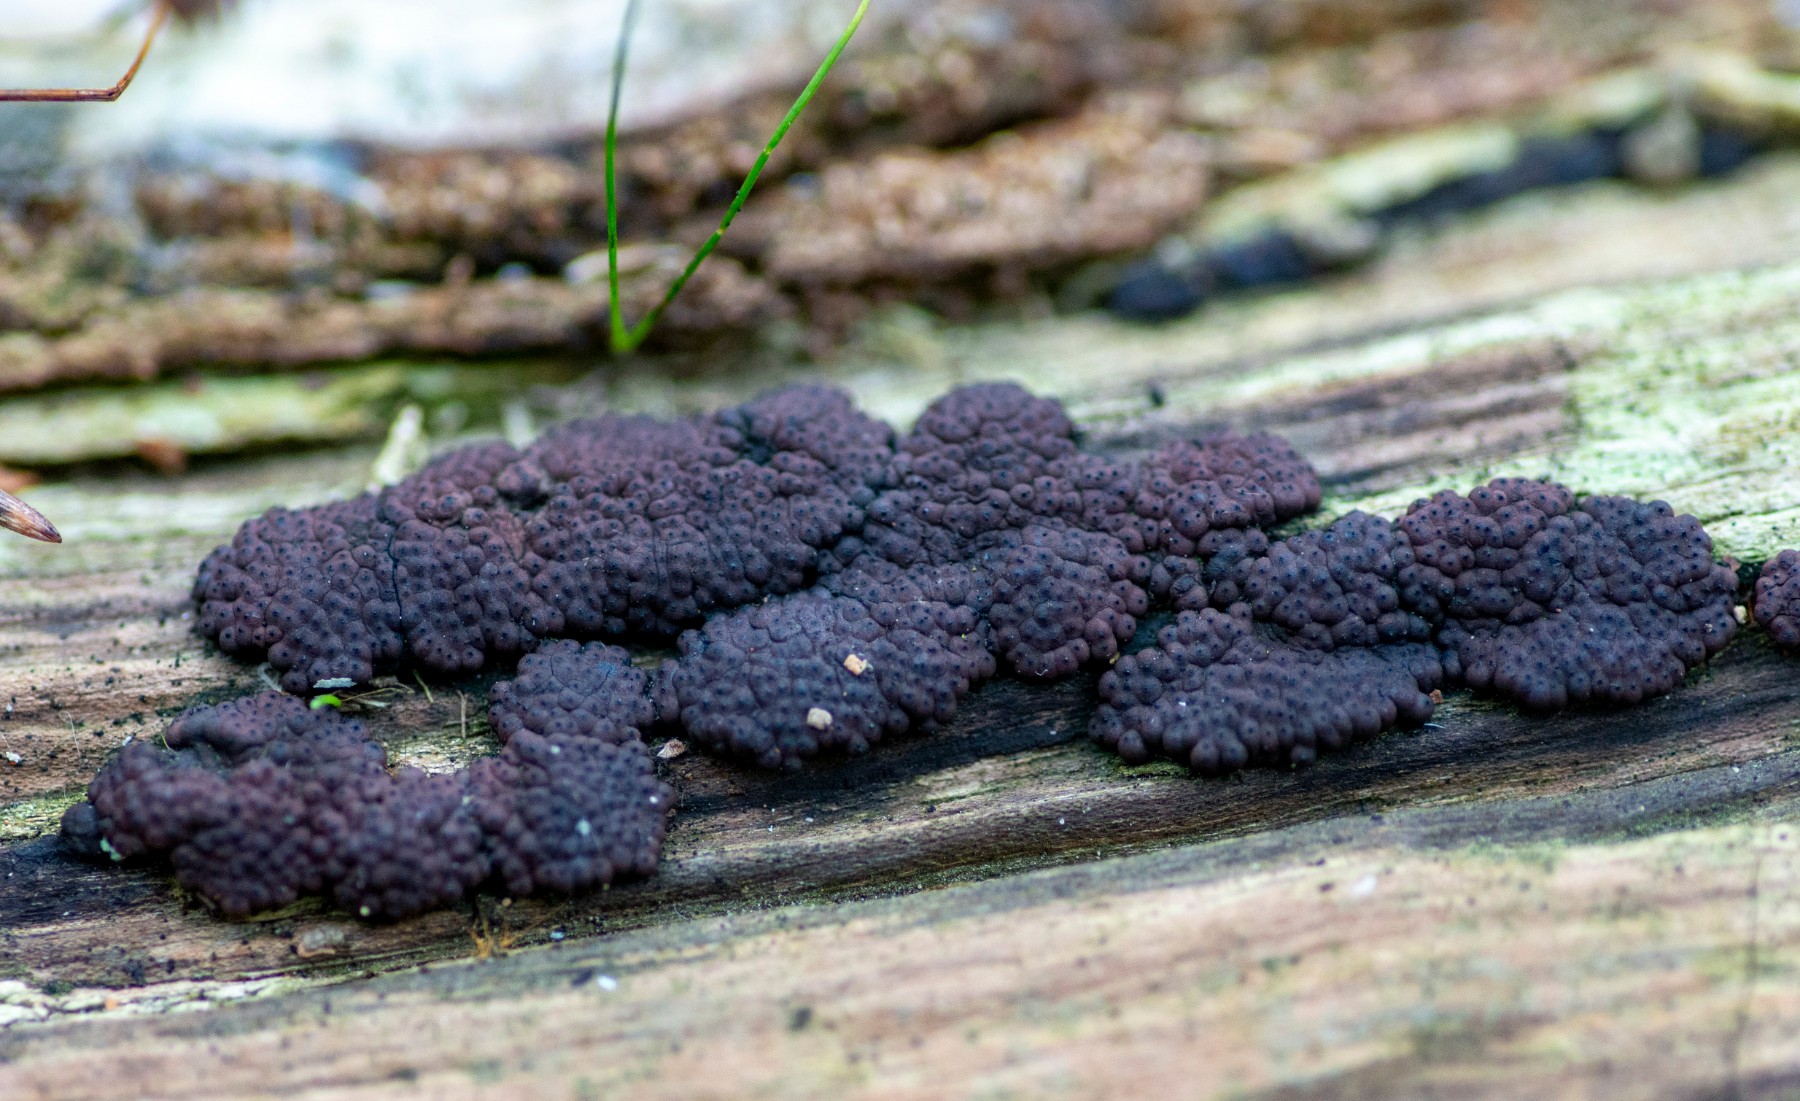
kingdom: Fungi
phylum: Ascomycota
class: Sordariomycetes
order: Xylariales
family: Hypoxylaceae
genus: Jackrogersella
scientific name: Jackrogersella multiformis
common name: foranderlig kulbær
